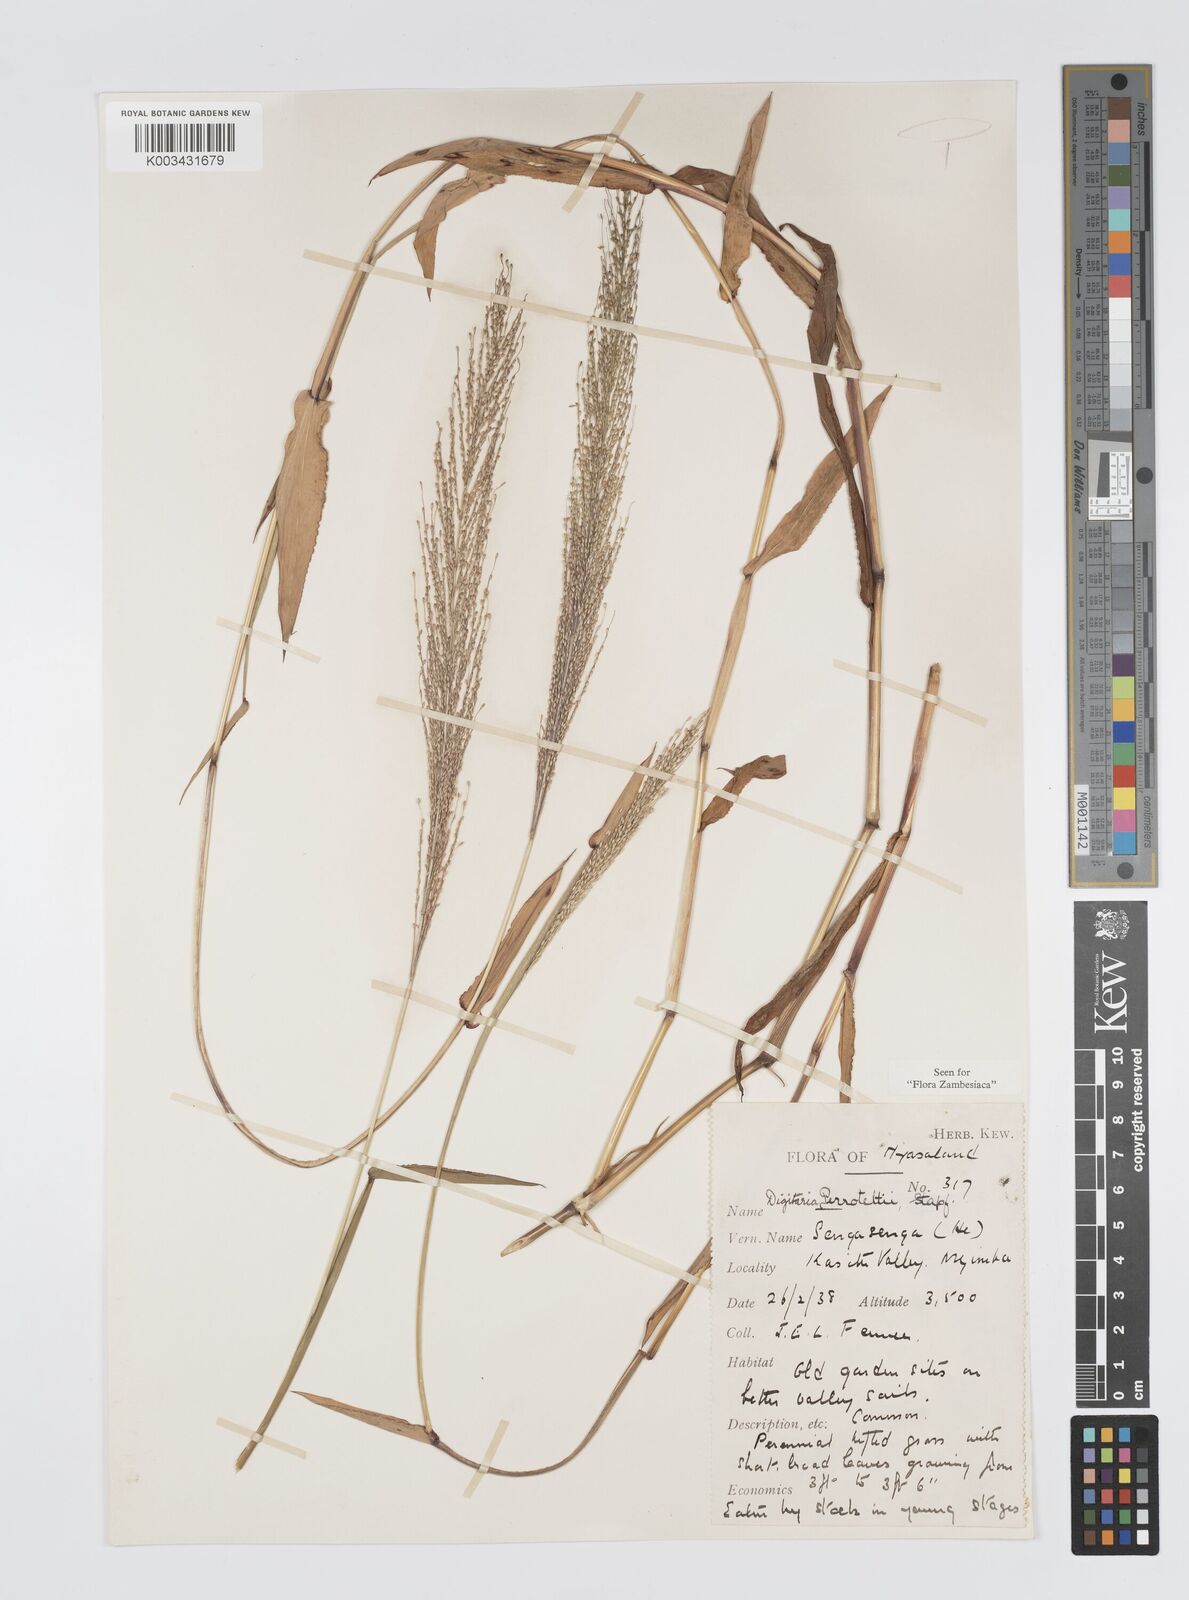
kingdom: Plantae
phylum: Tracheophyta
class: Liliopsida
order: Poales
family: Poaceae
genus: Digitaria
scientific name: Digitaria perrottetii
